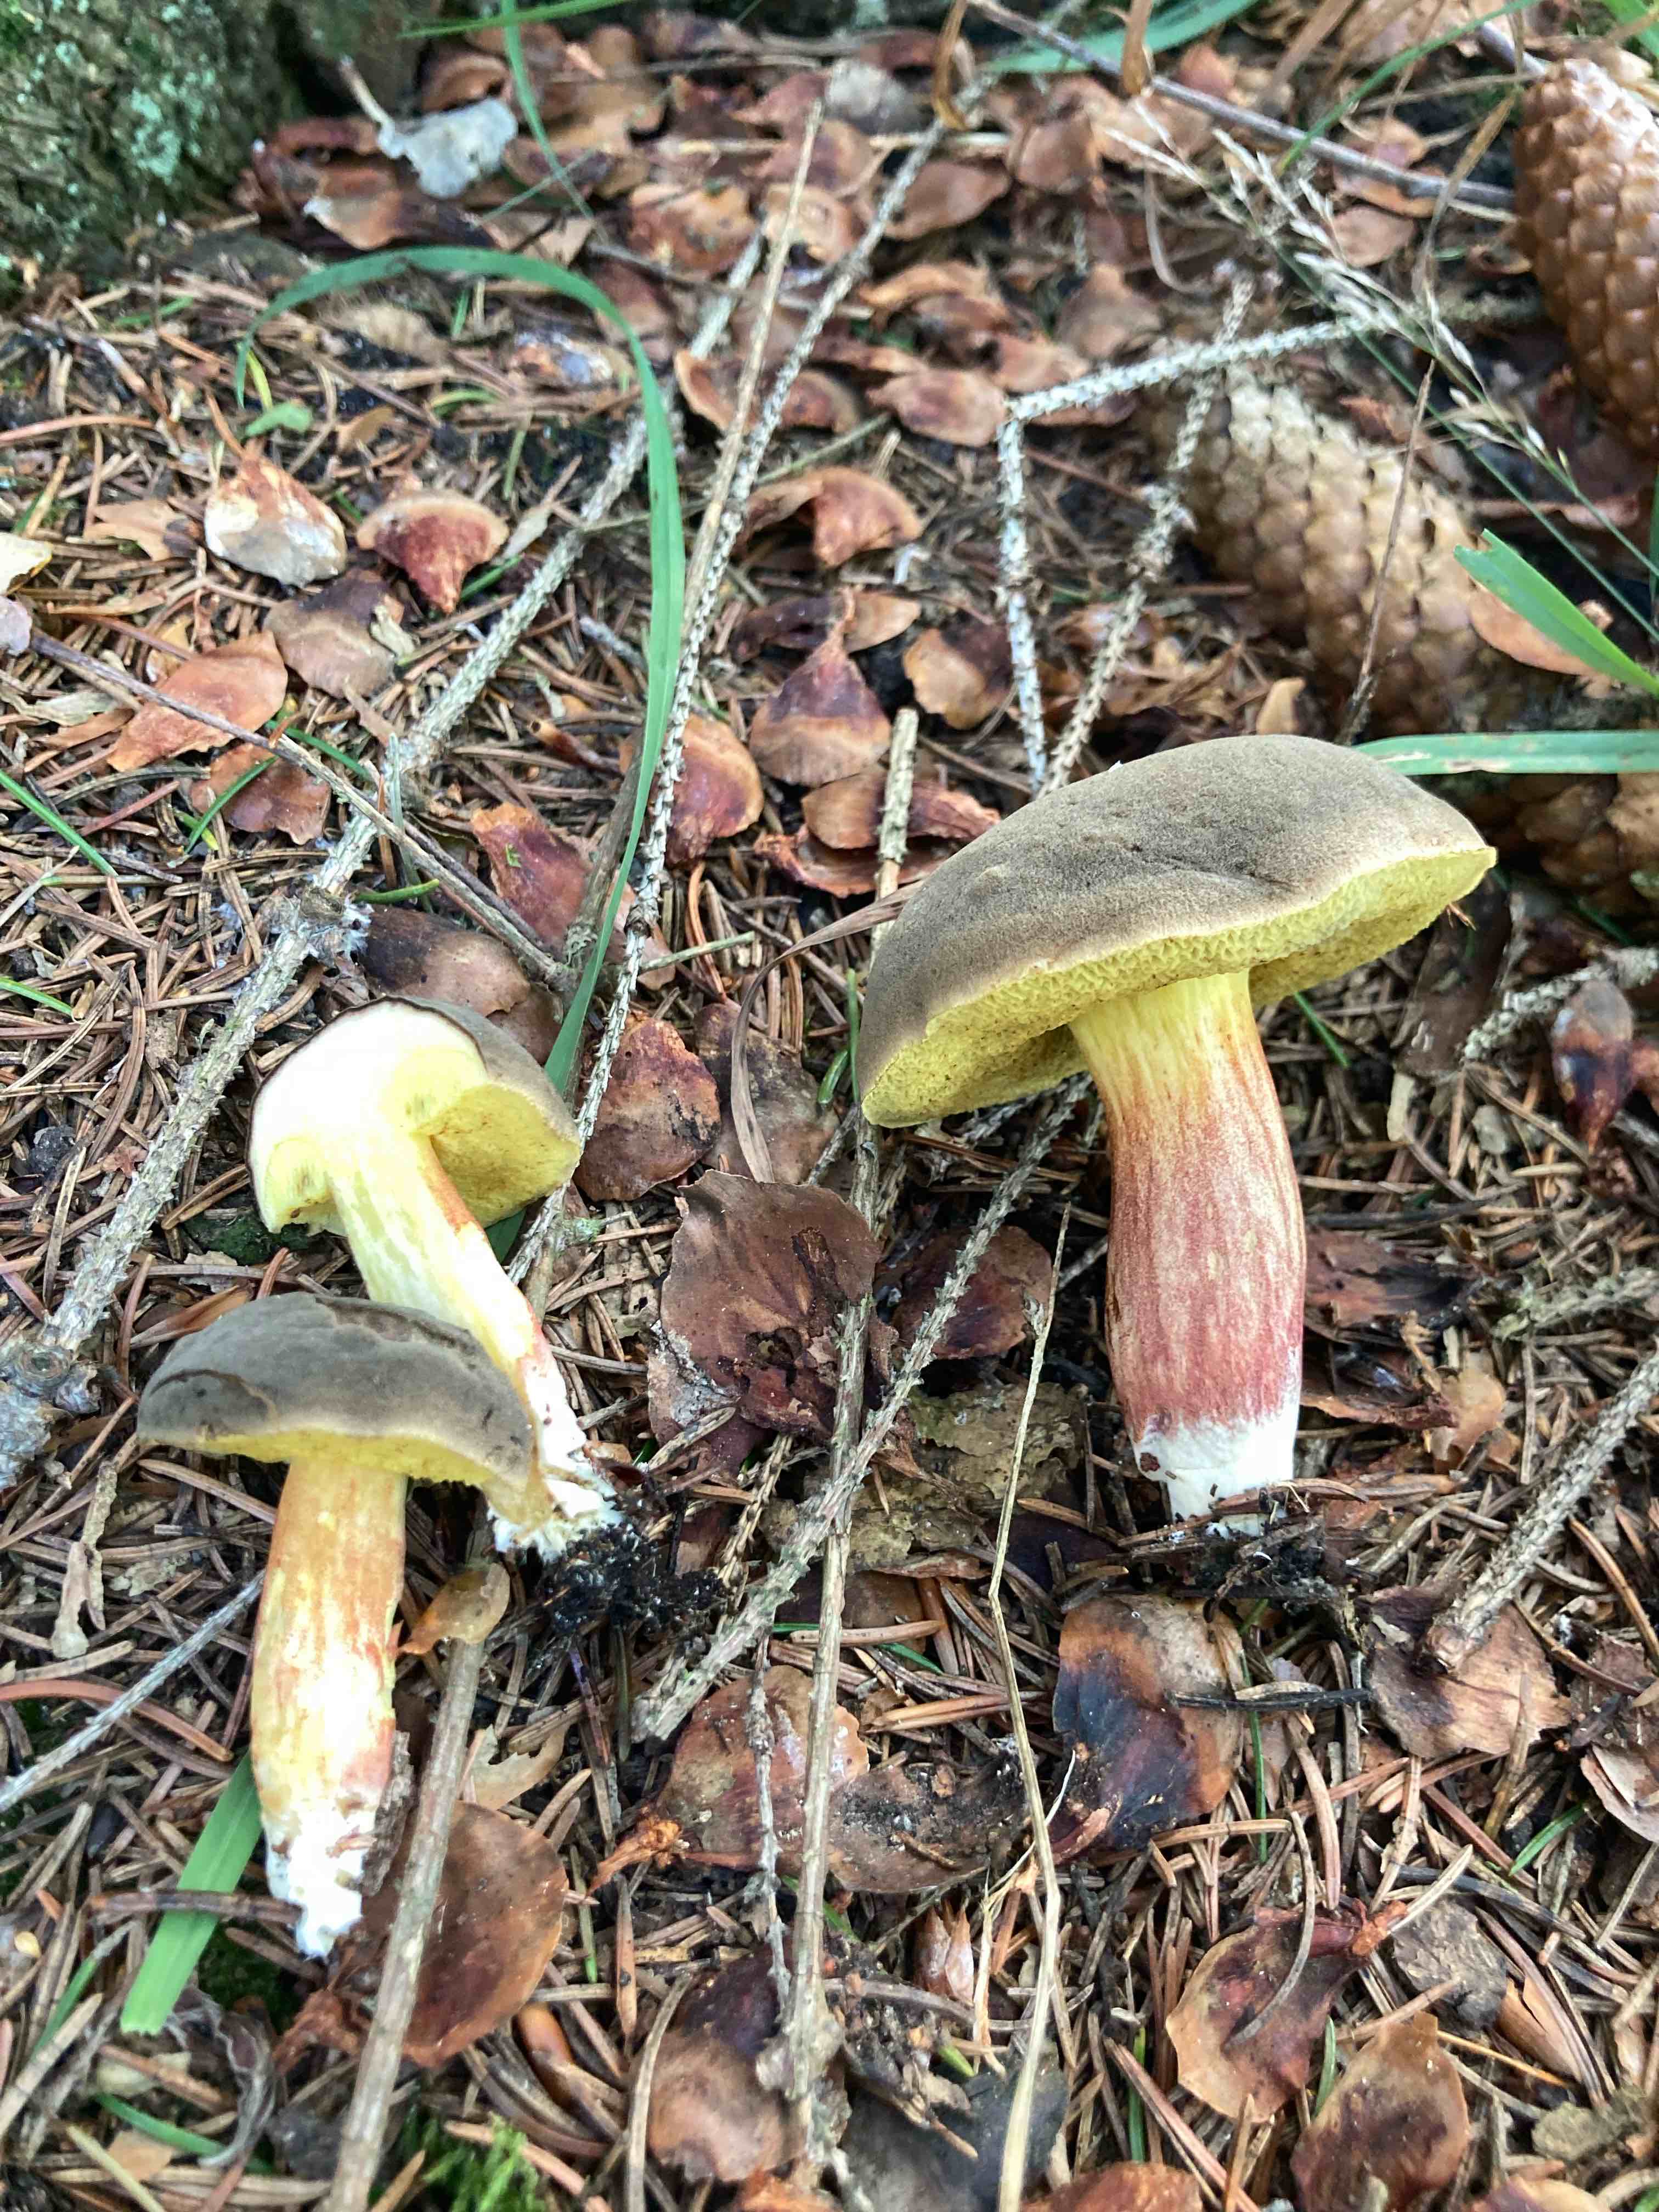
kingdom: Fungi
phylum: Basidiomycota
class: Agaricomycetes
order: Boletales
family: Boletaceae
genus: Xerocomellus
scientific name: Xerocomellus
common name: dværgrørhat
